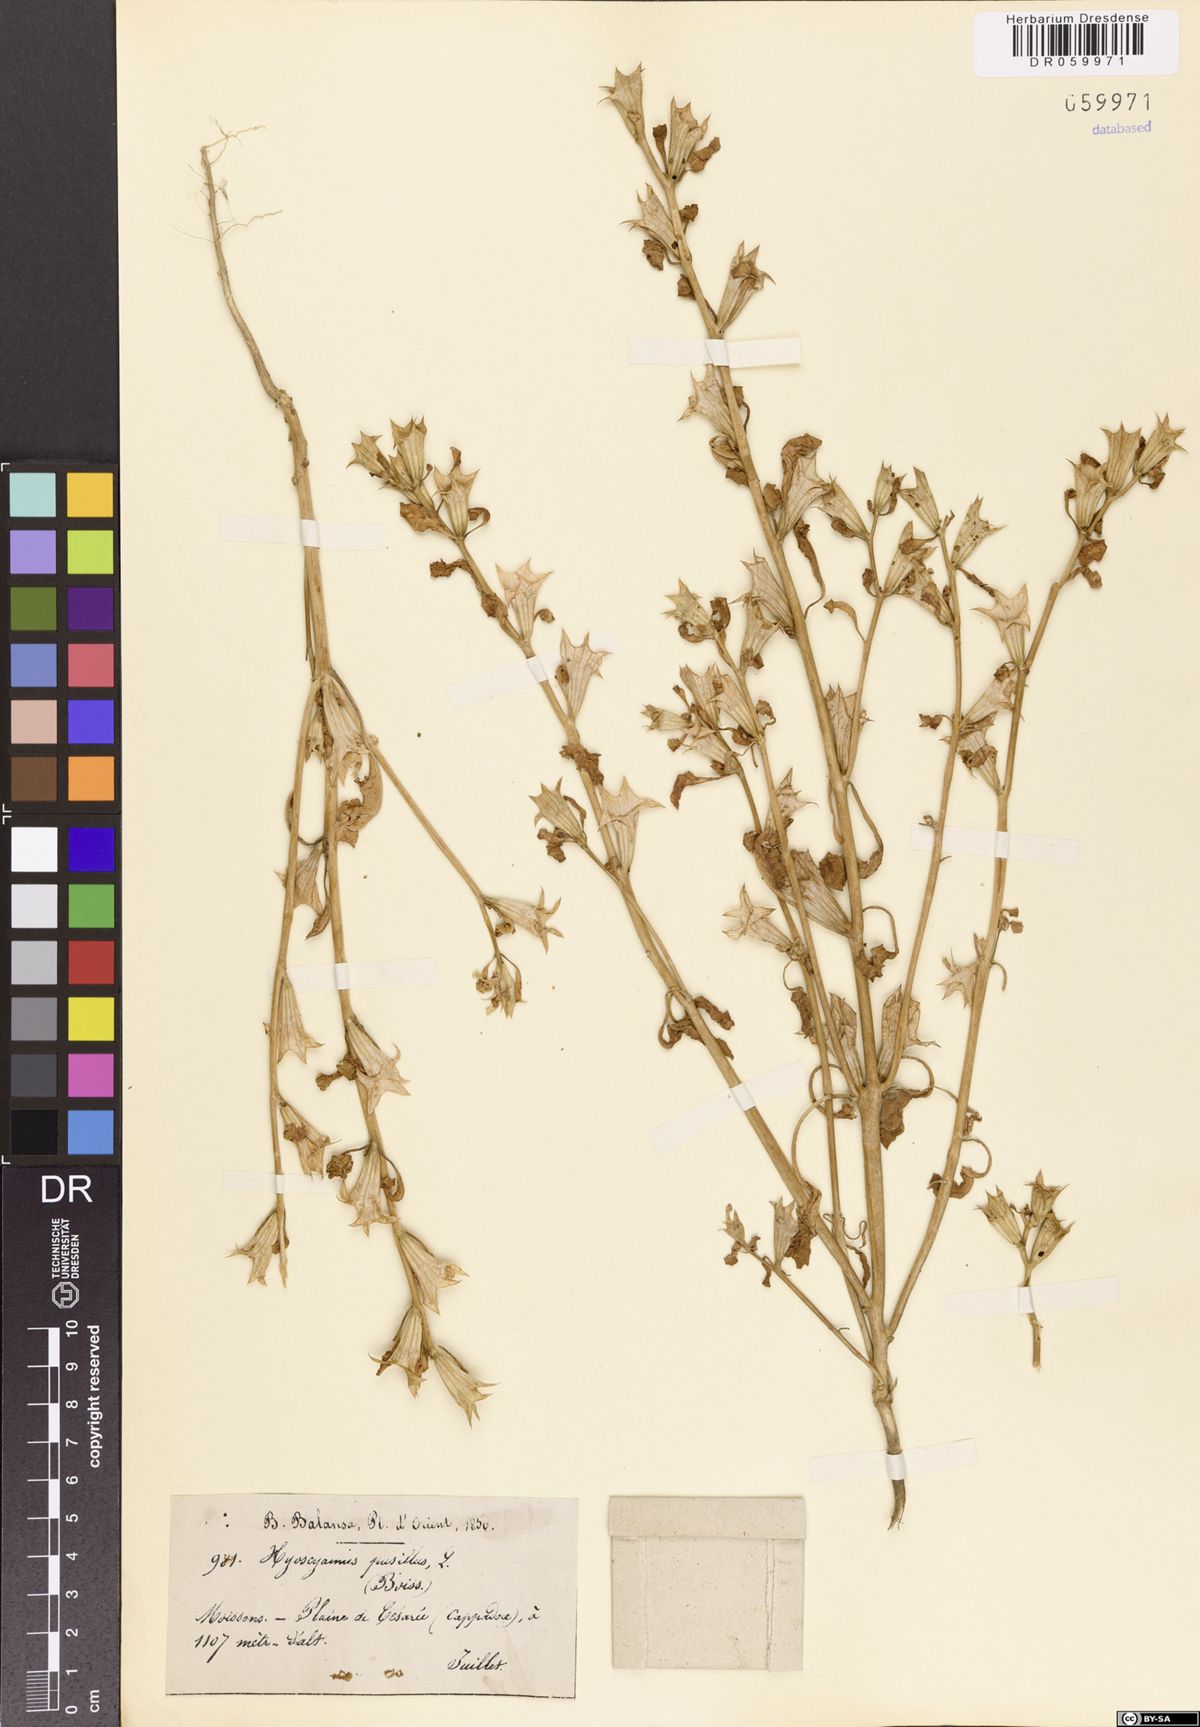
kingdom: Plantae
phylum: Tracheophyta
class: Magnoliopsida
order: Solanales
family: Solanaceae
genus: Hyoscyamus
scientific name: Hyoscyamus pusillus
